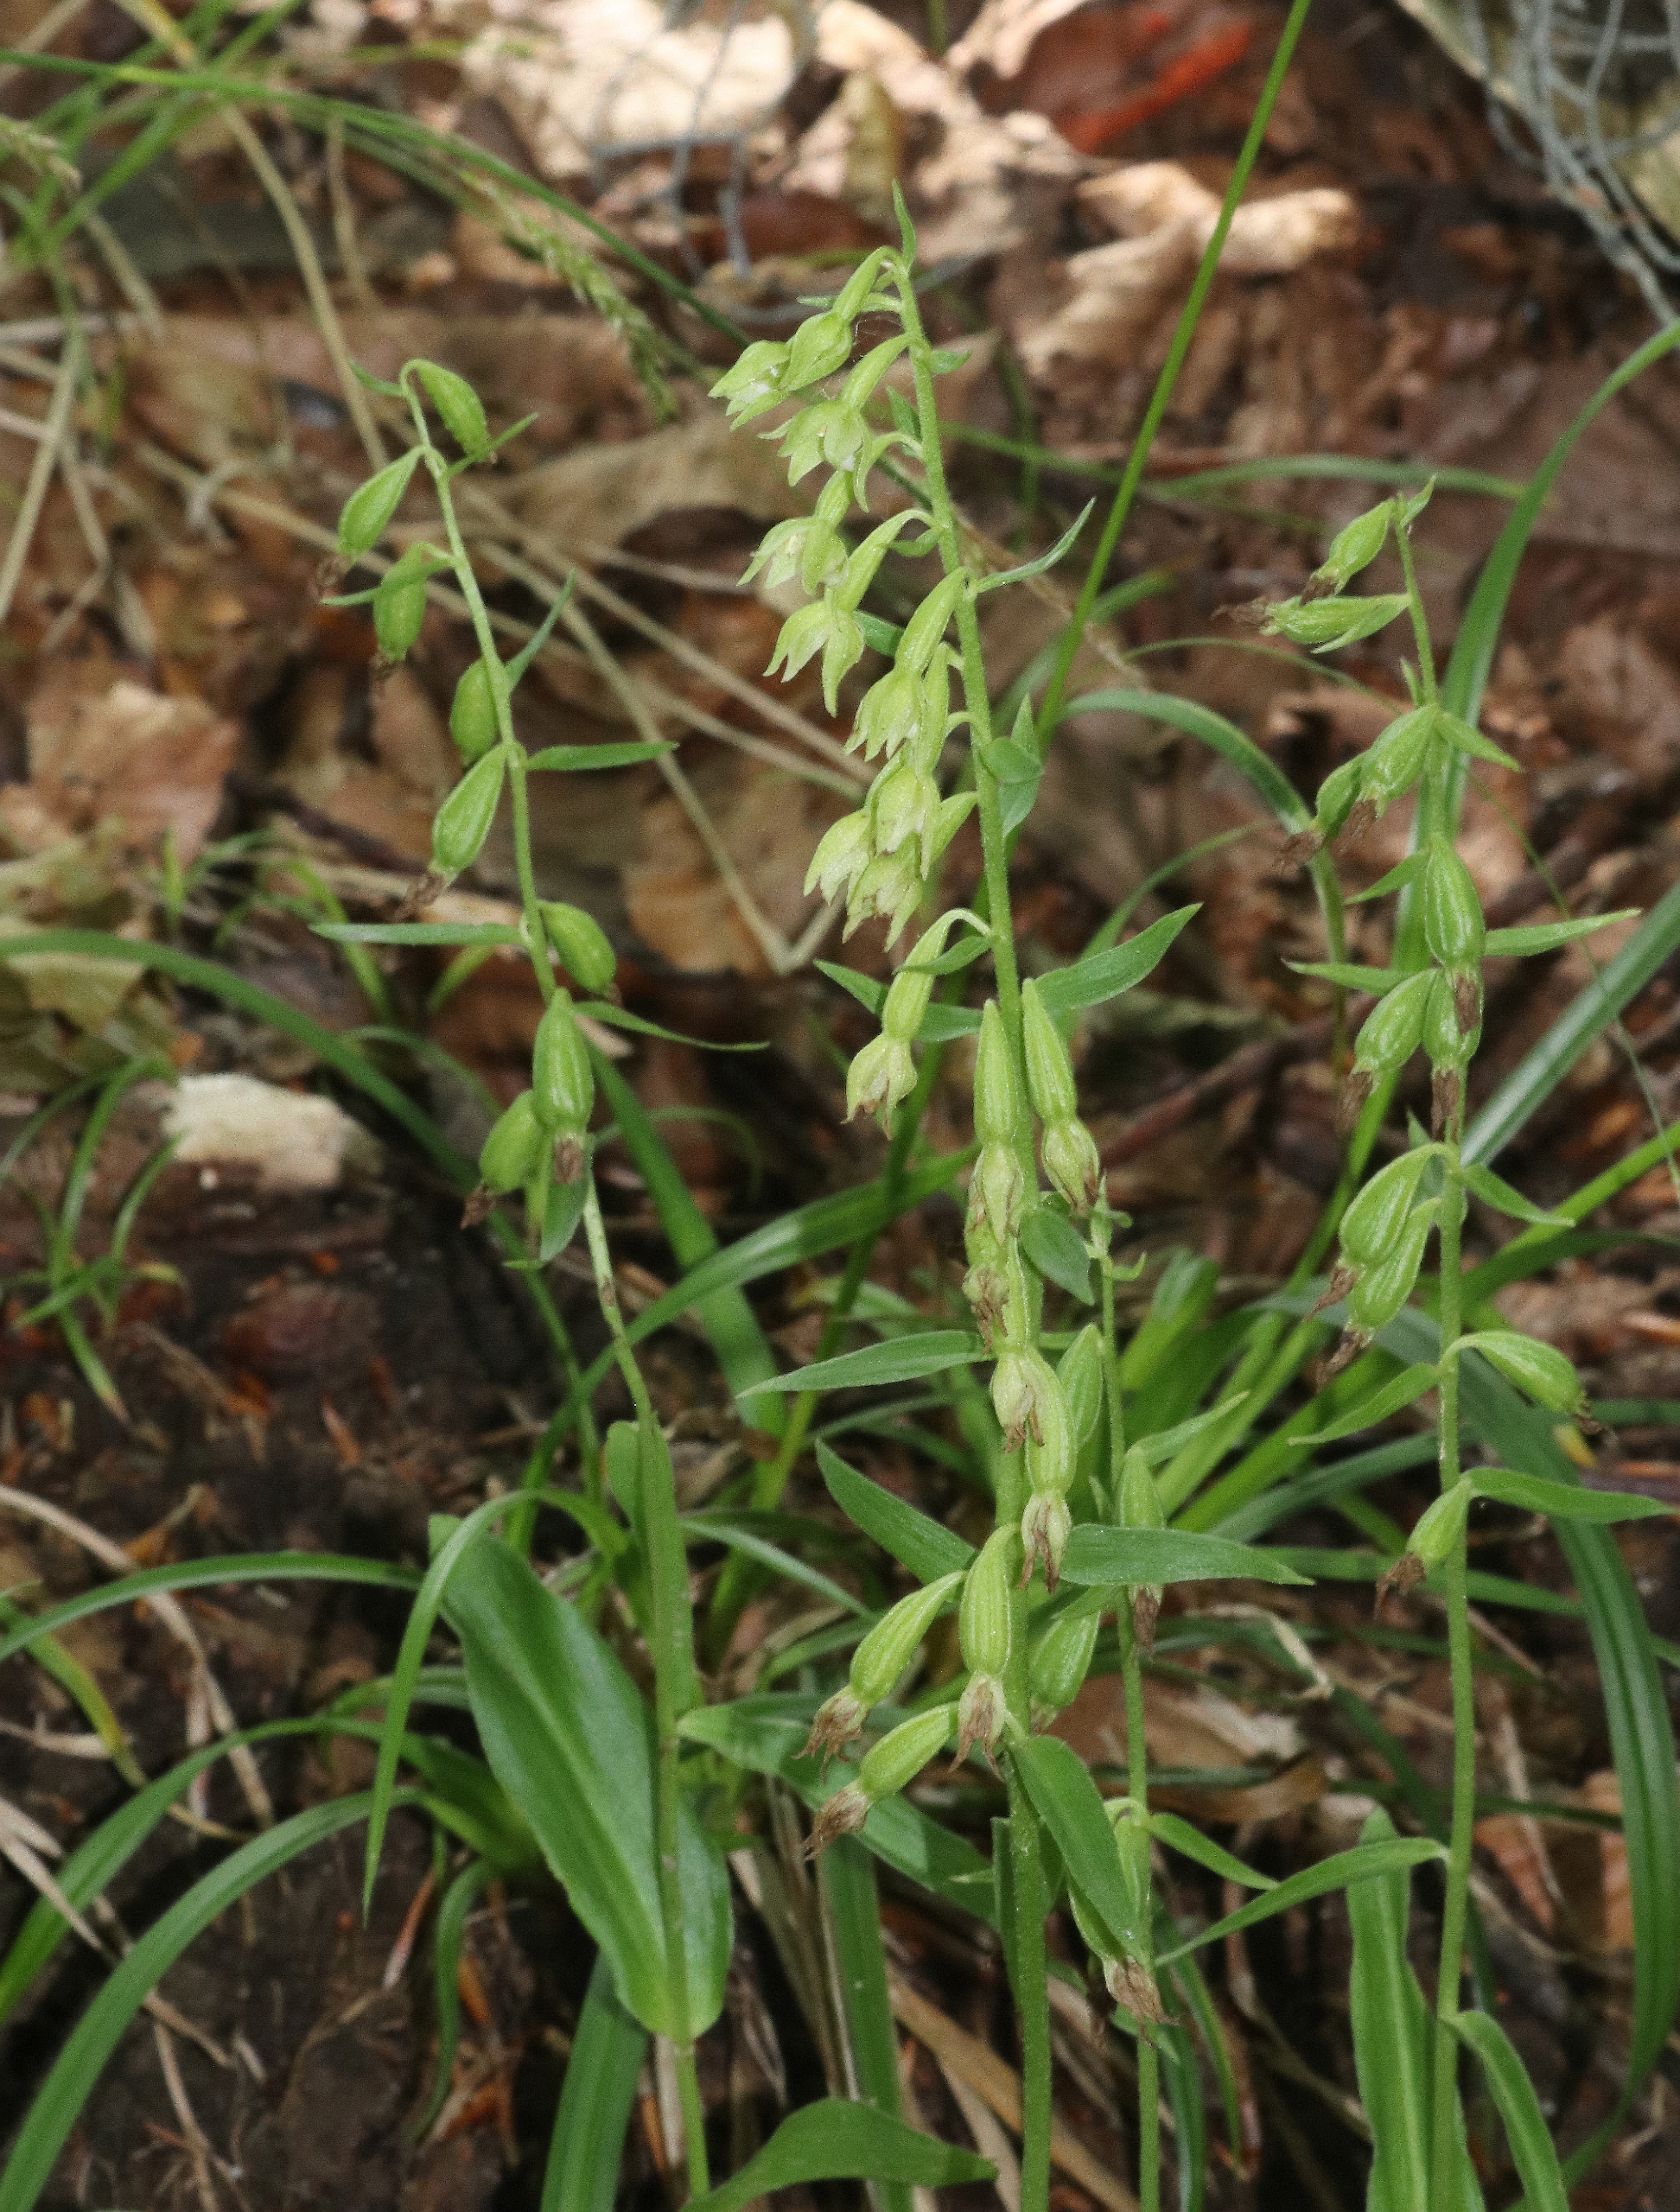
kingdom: Plantae
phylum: Tracheophyta
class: Liliopsida
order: Asparagales
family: Orchidaceae
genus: Epipactis
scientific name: Epipactis phyllanthes
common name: Nikkende hullæbe
